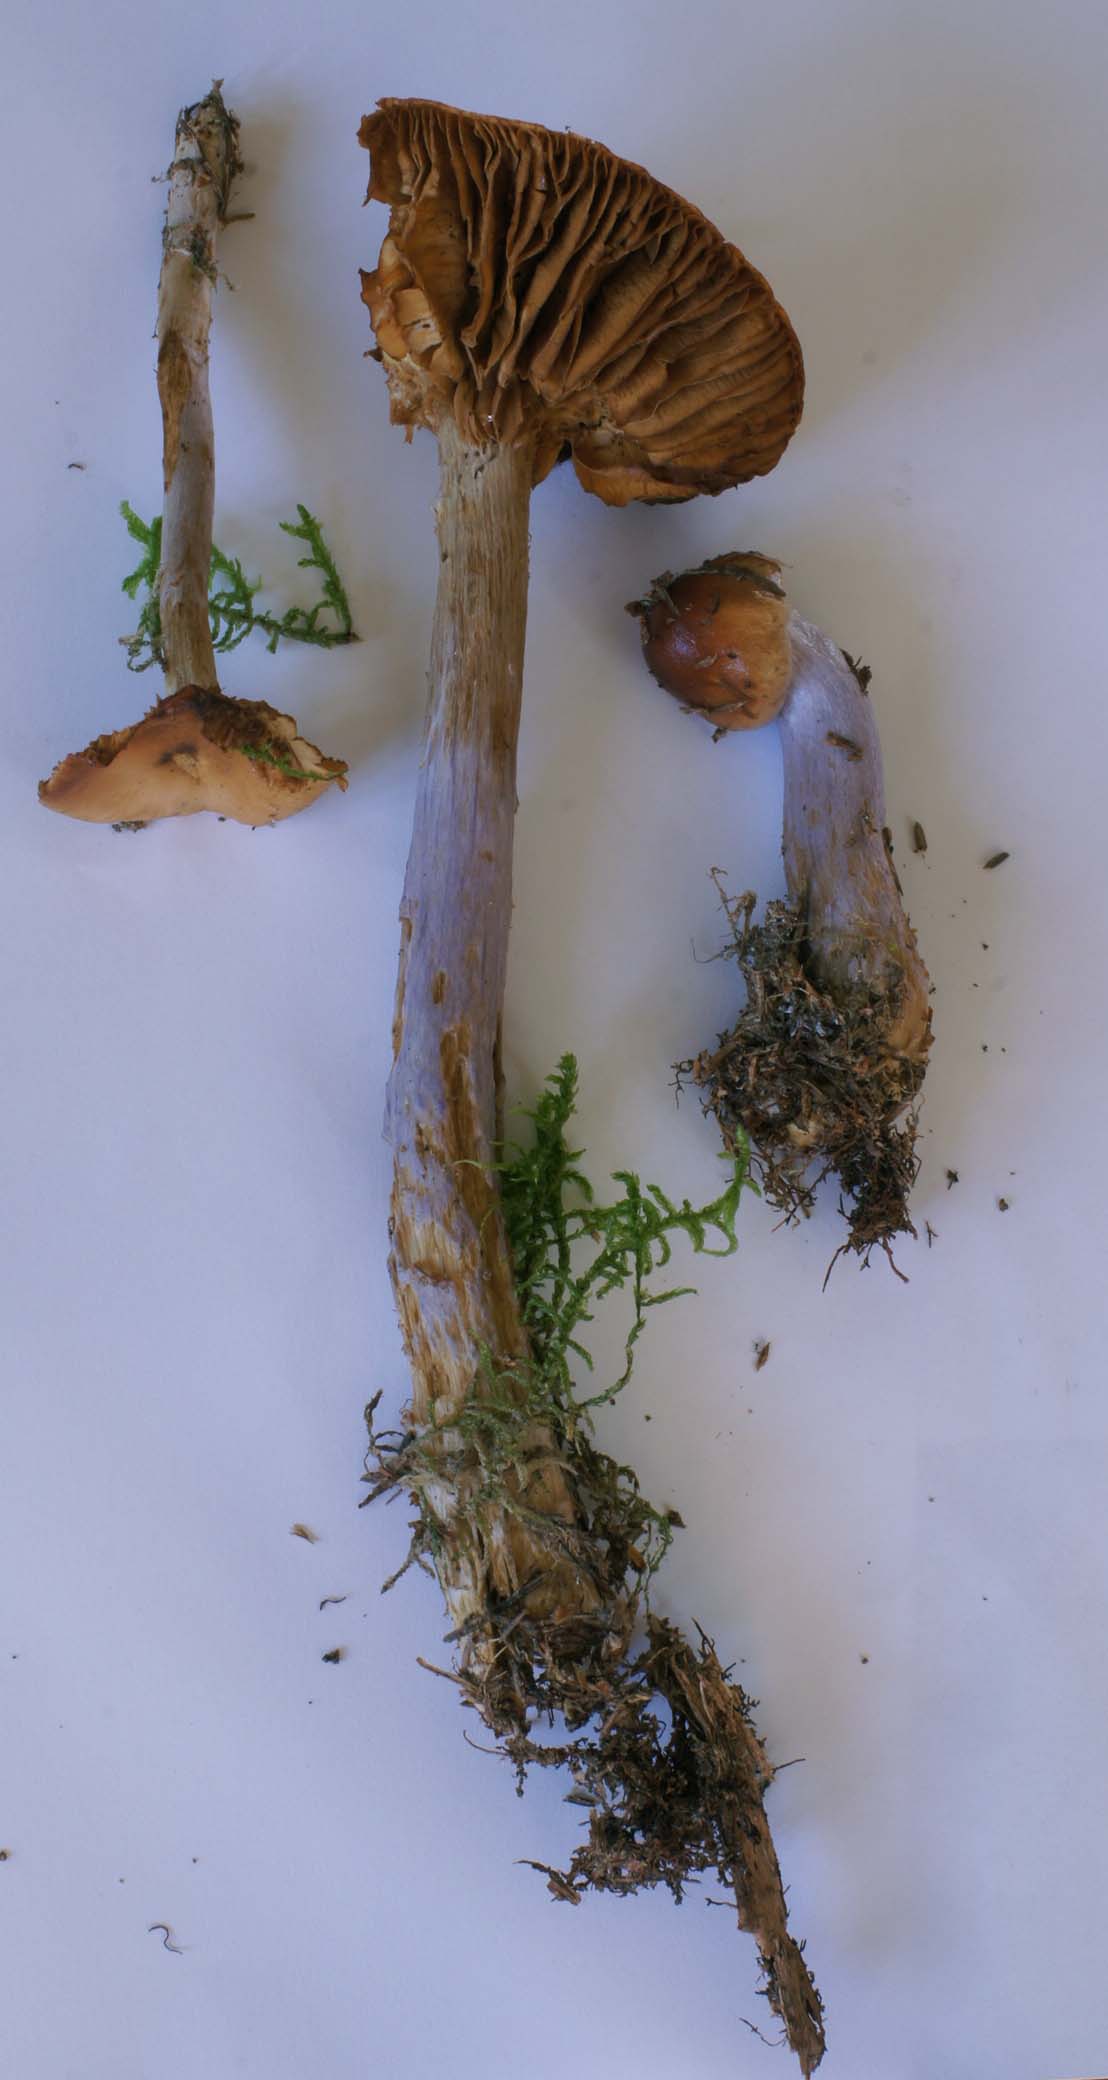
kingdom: Fungi
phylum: Basidiomycota
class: Agaricomycetes
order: Agaricales
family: Cortinariaceae
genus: Cortinarius
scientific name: Cortinarius collinitus
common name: spættet slørhat
